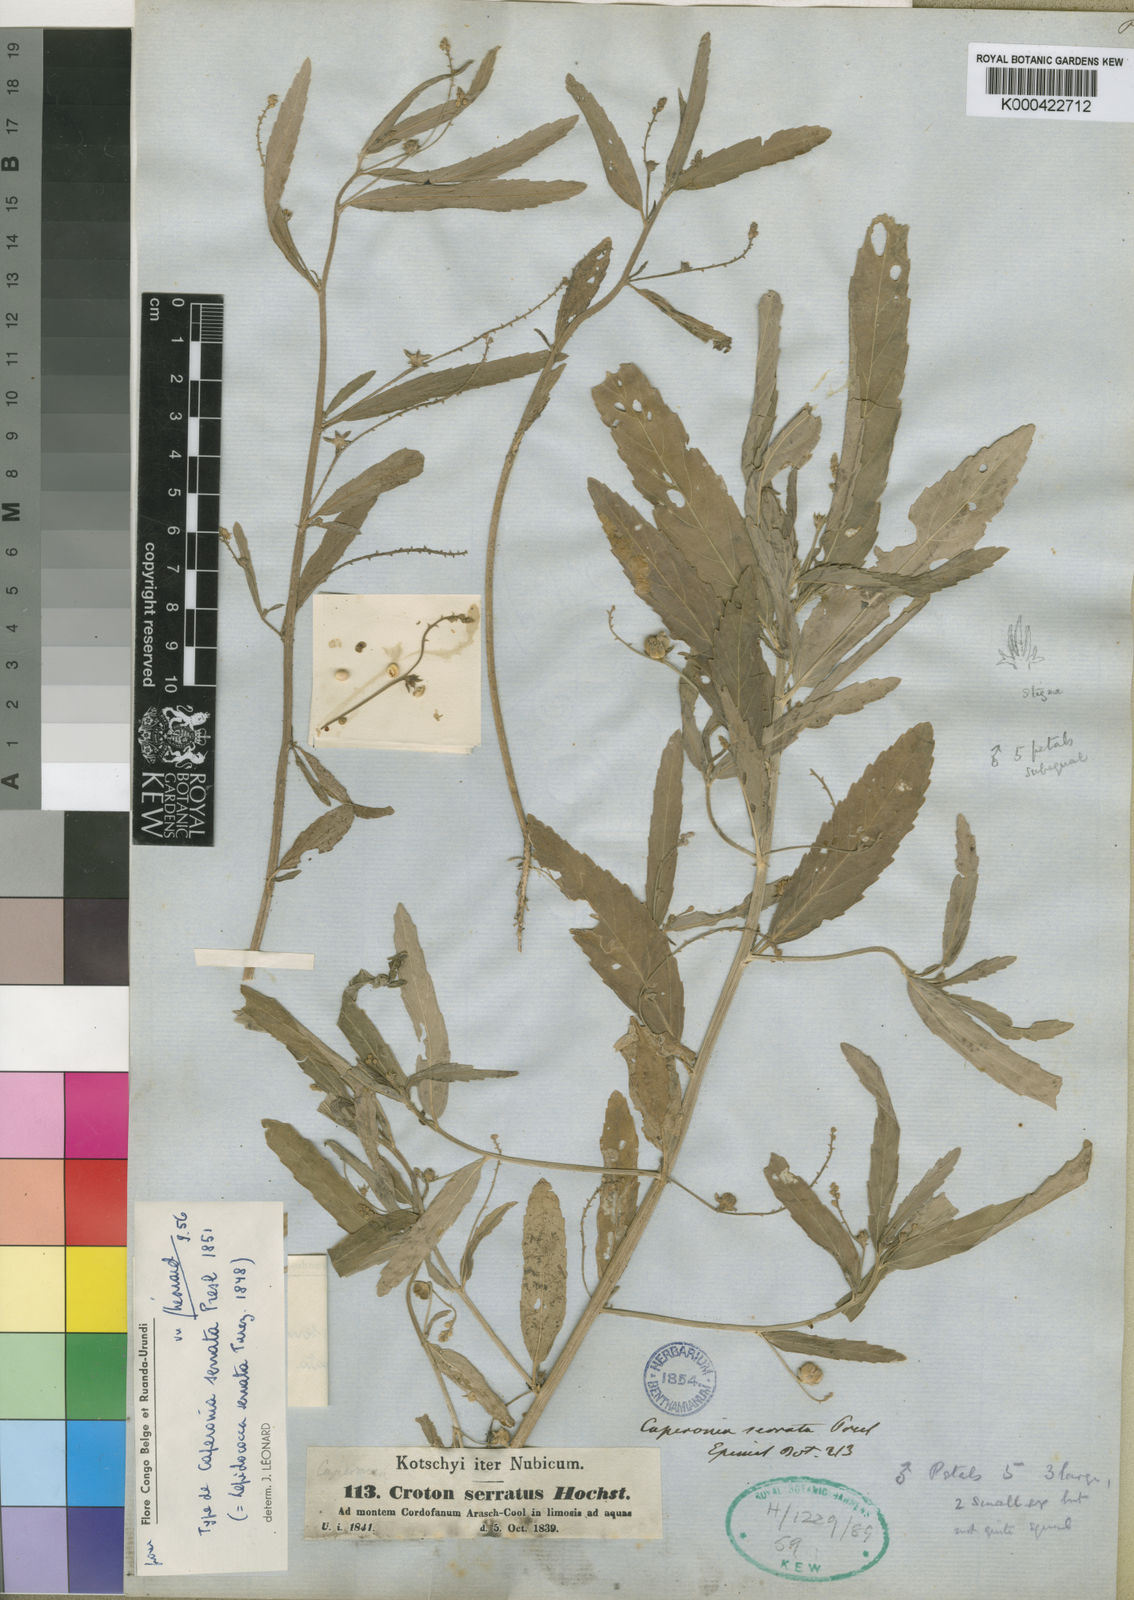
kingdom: Plantae
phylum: Tracheophyta
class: Magnoliopsida
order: Malpighiales
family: Euphorbiaceae
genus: Caperonia
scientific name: Caperonia serrata
